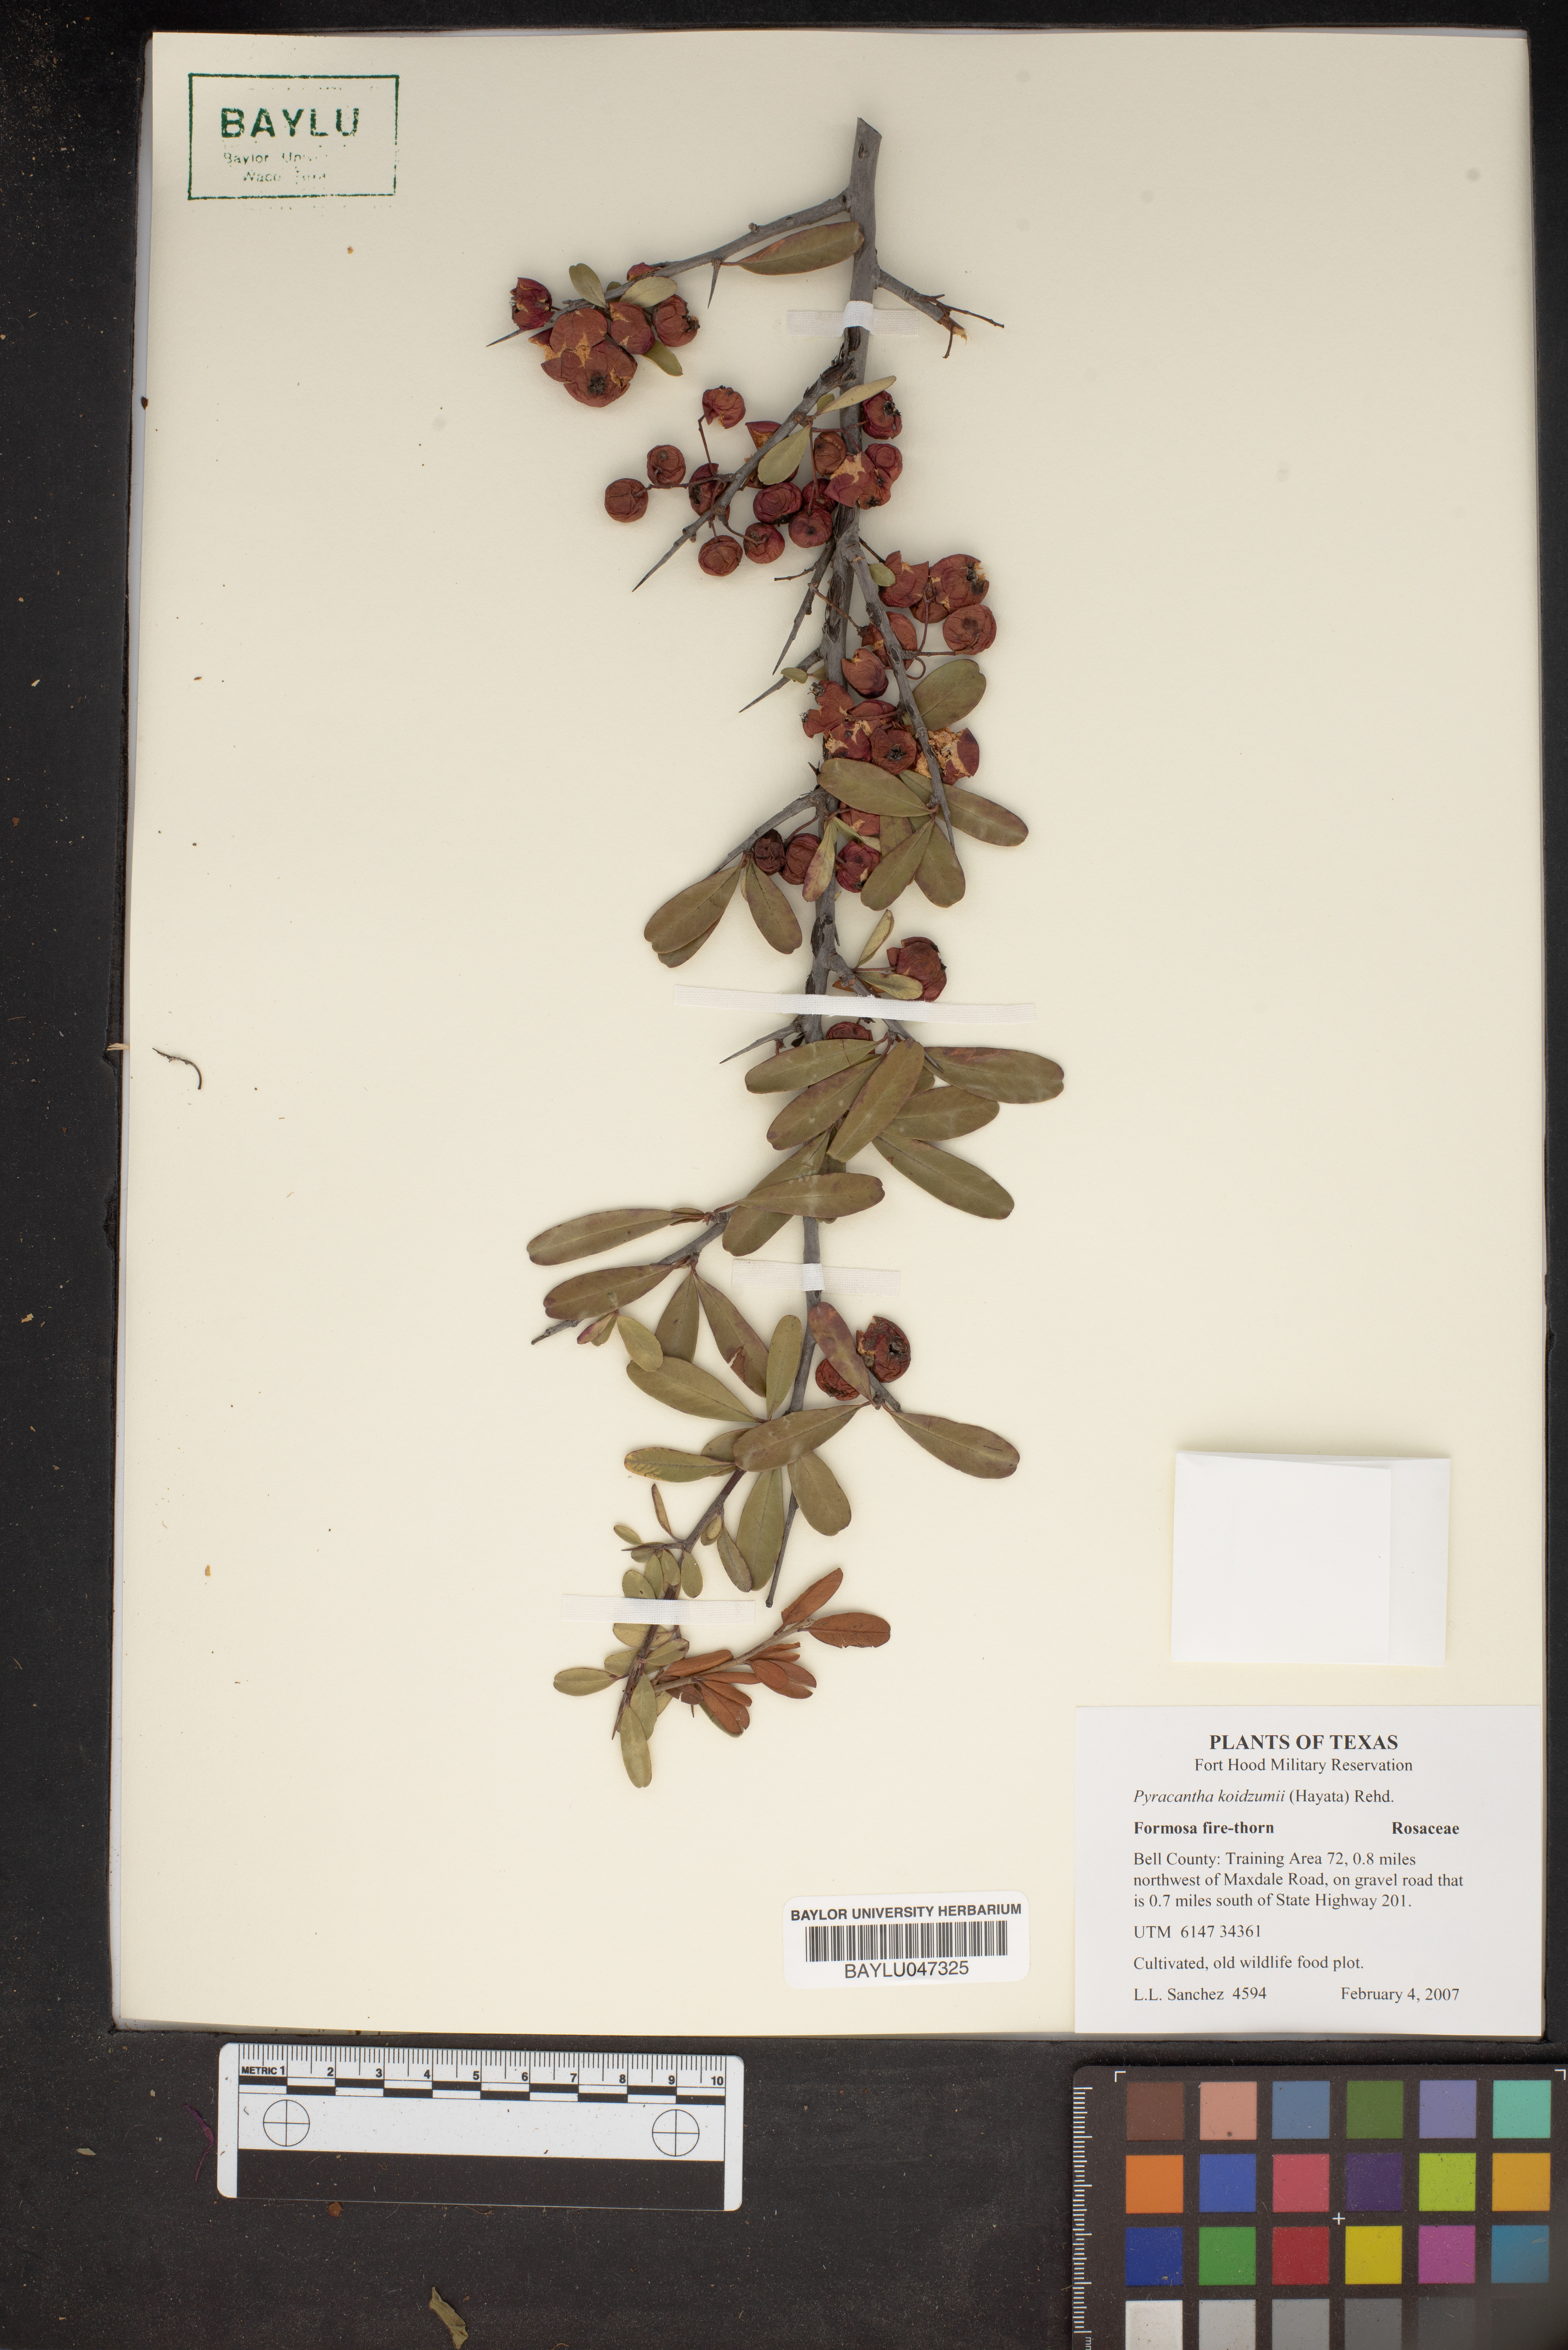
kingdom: Plantae
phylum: Tracheophyta
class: Magnoliopsida
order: Rosales
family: Rosaceae
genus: Pyracantha
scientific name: Pyracantha koidzumii
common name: Formosa firethorn
